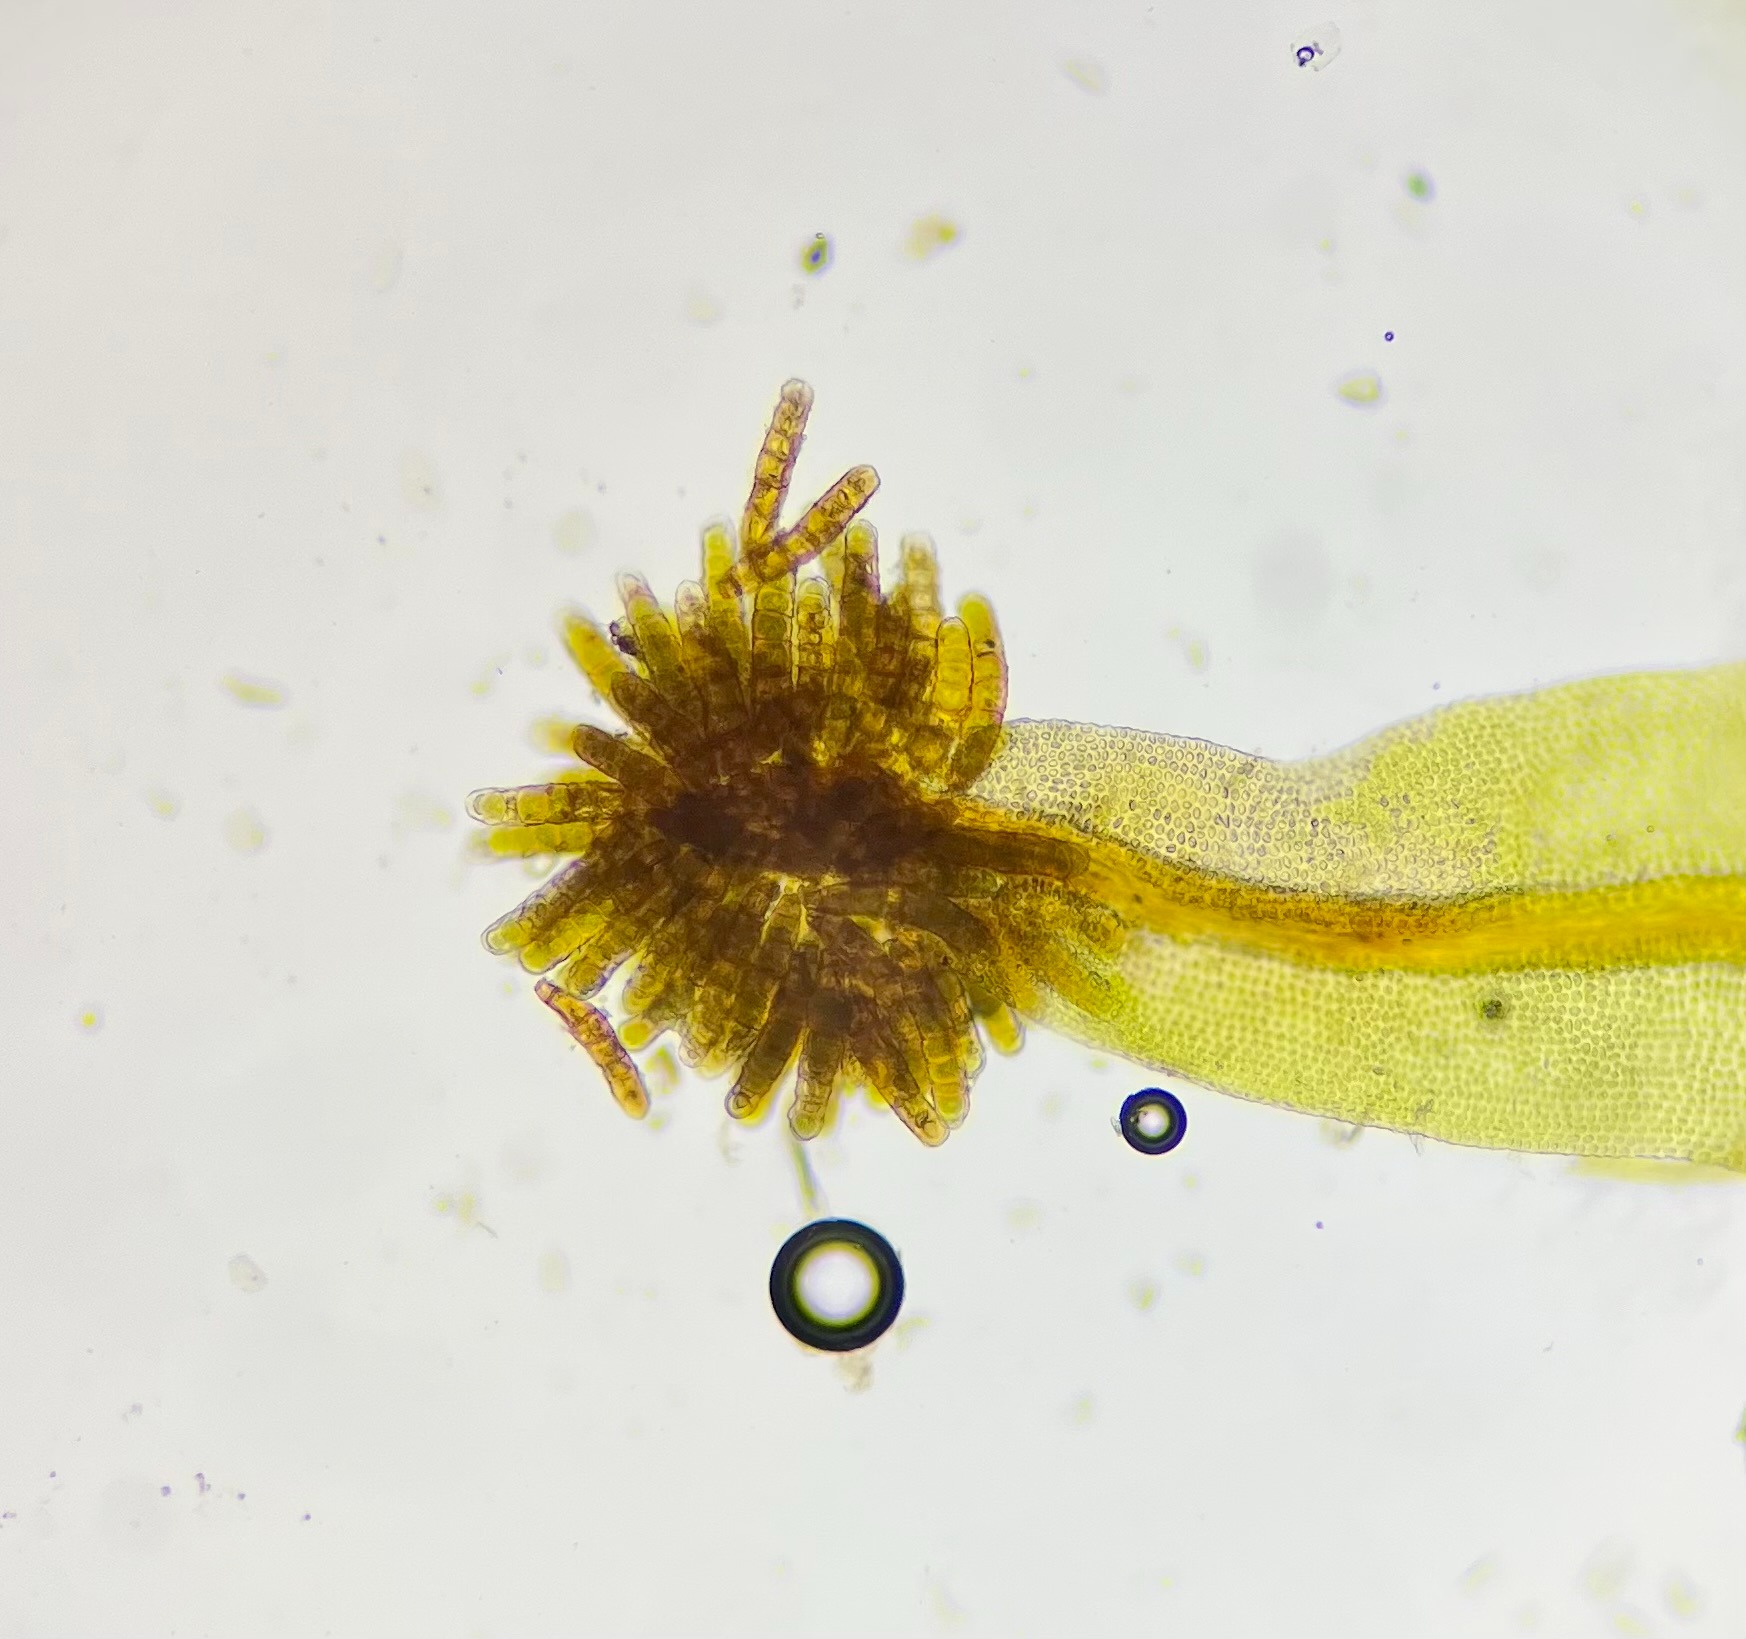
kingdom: Plantae
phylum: Bryophyta
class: Bryopsida
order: Orthotrichales
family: Orthotrichaceae
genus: Plenogemma
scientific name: Plenogemma phyllantha
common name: Stor låddenhætte
